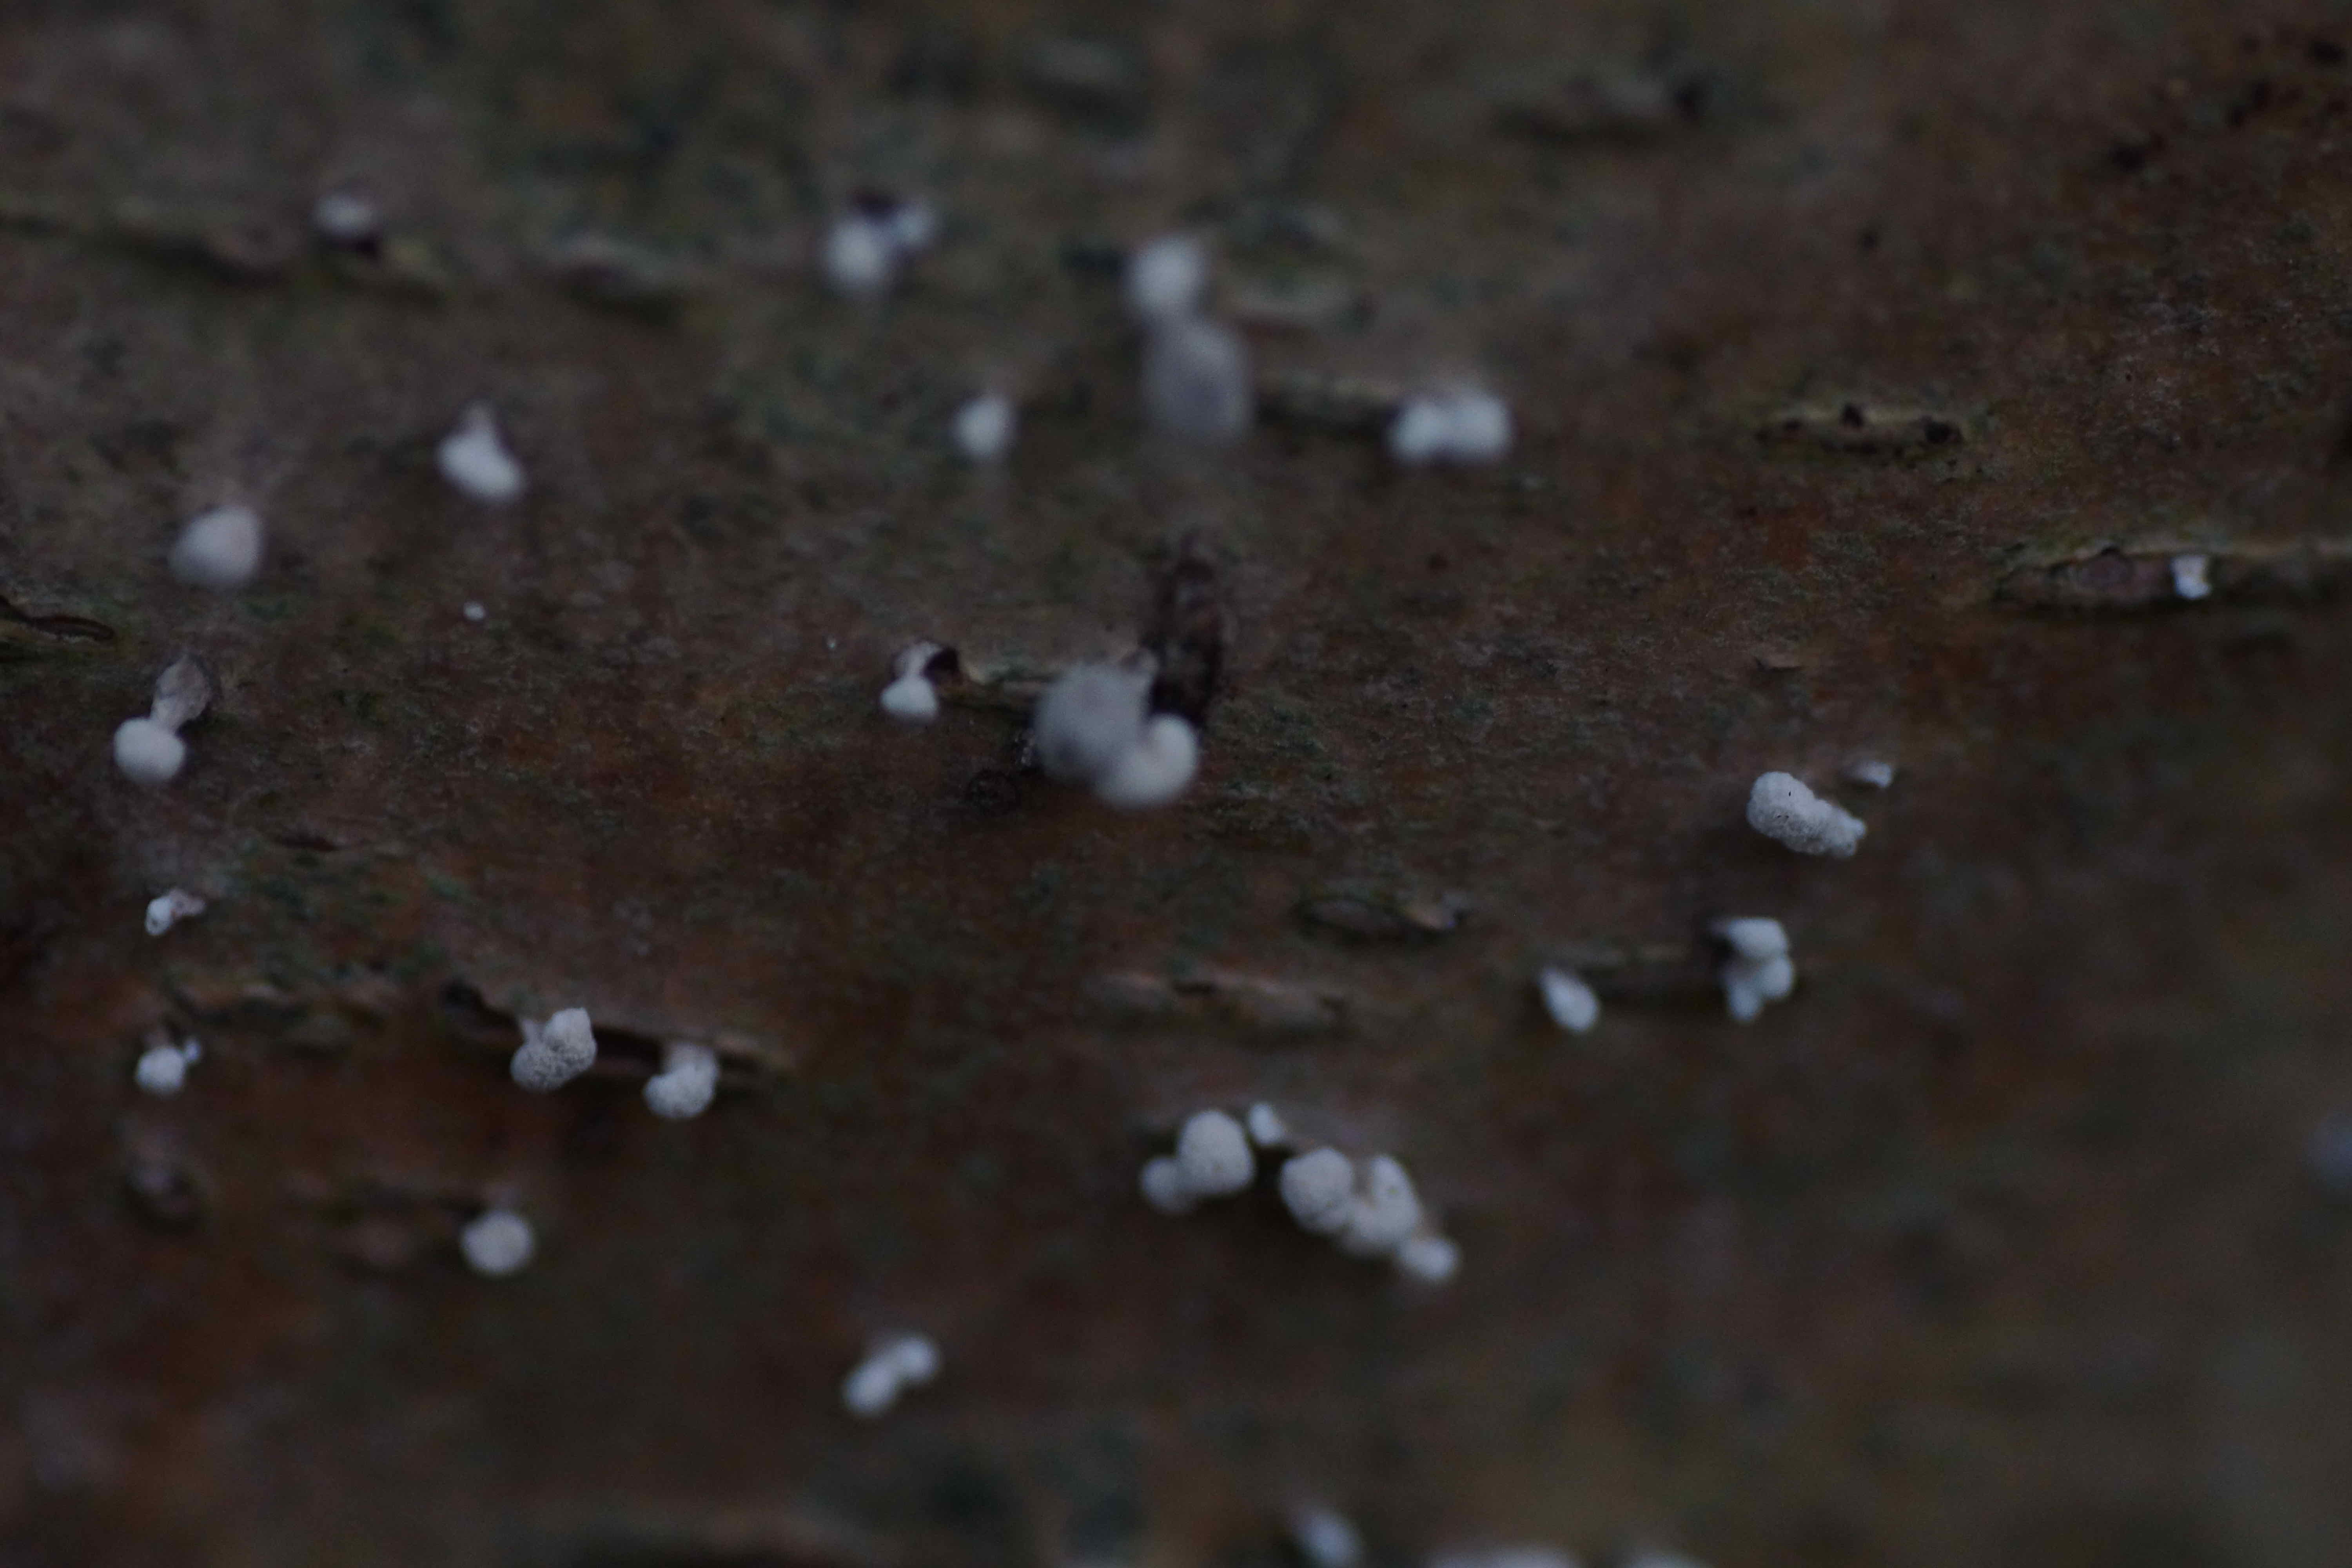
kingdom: Fungi
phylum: Basidiomycota
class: Atractiellomycetes
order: Atractiellales
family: Phleogenaceae
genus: Phleogena
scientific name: Phleogena faginea
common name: pudderkølle
